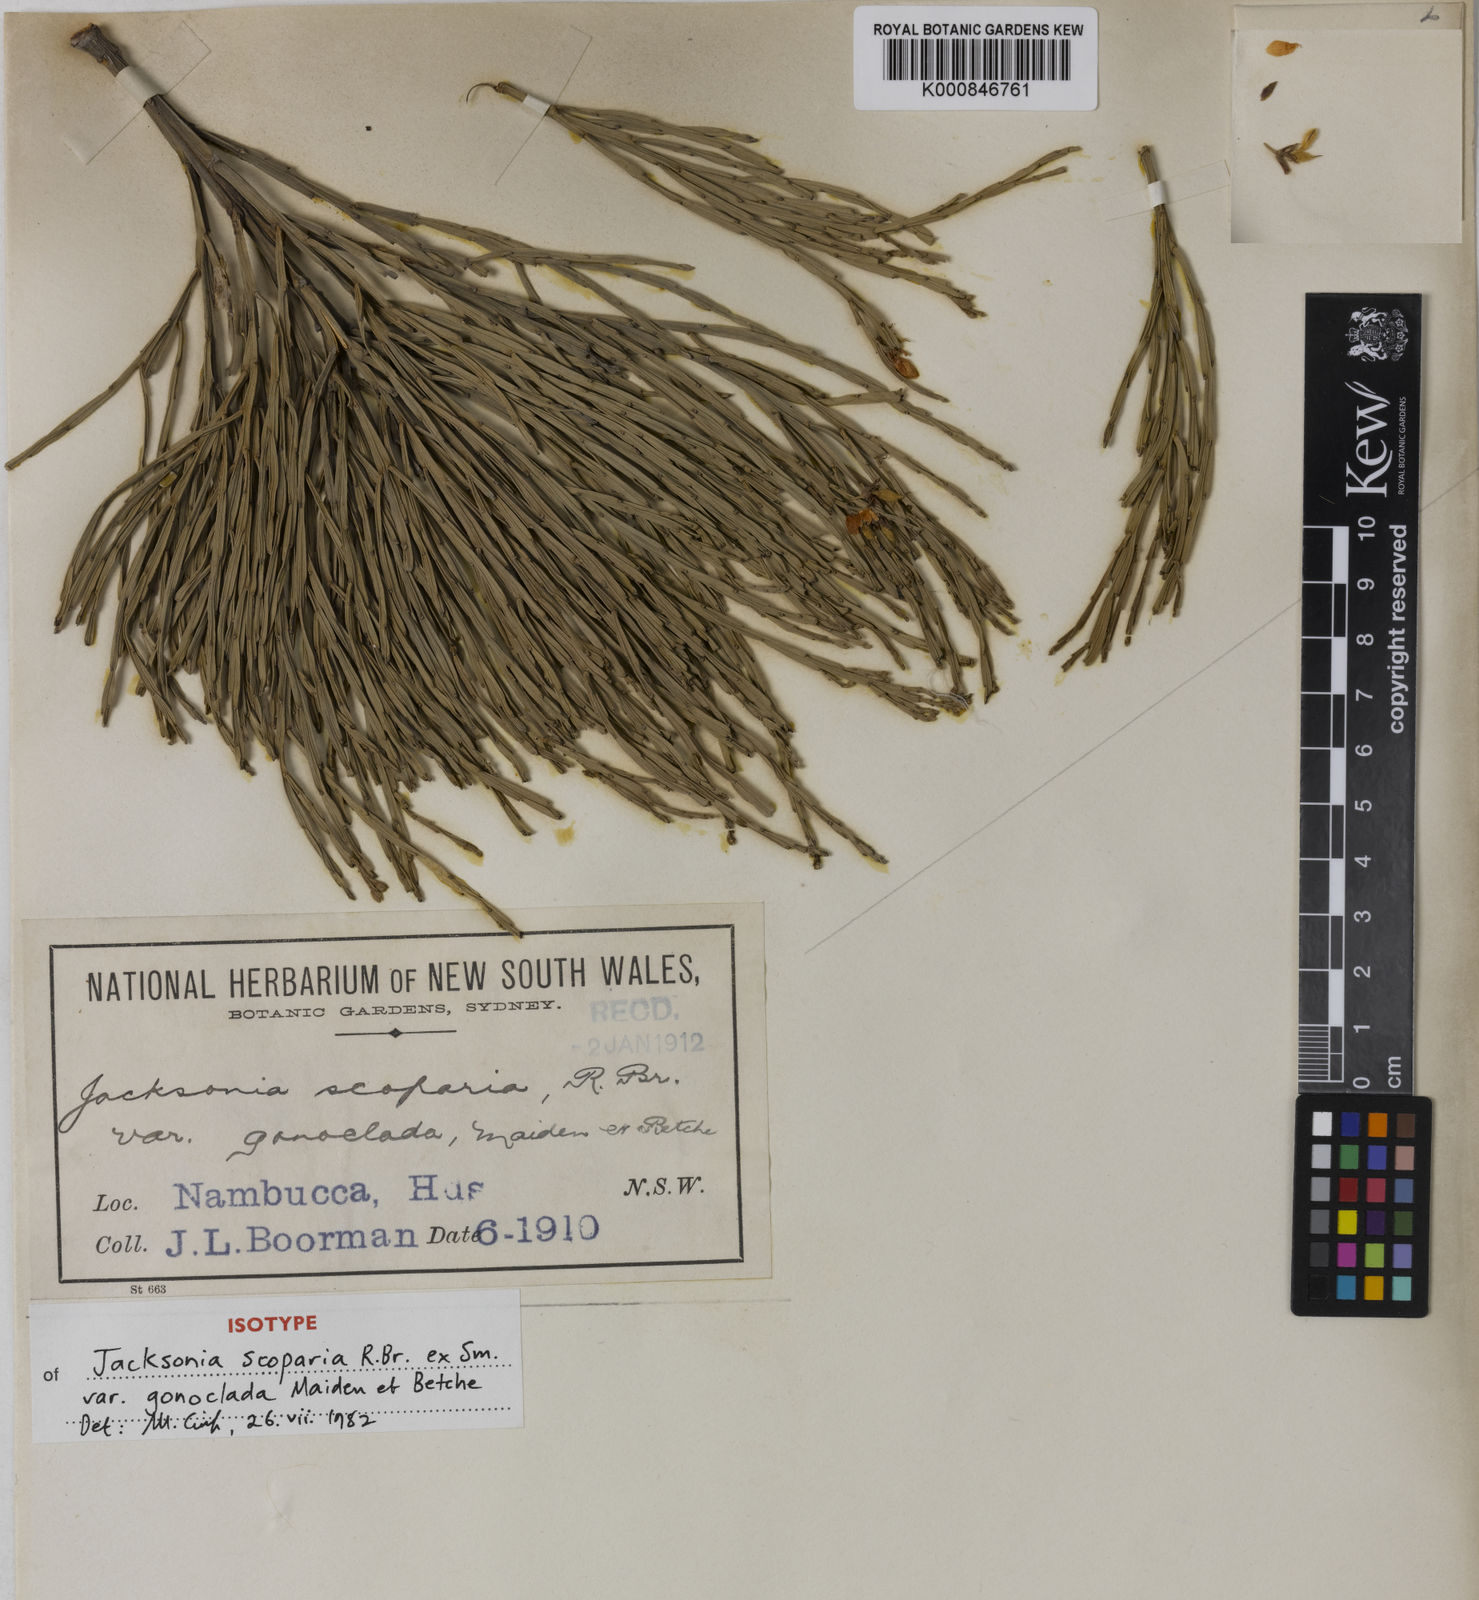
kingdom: Plantae
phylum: Tracheophyta
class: Magnoliopsida
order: Fabales
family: Fabaceae
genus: Jacksonia
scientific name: Jacksonia scoparia
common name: Dogwood
